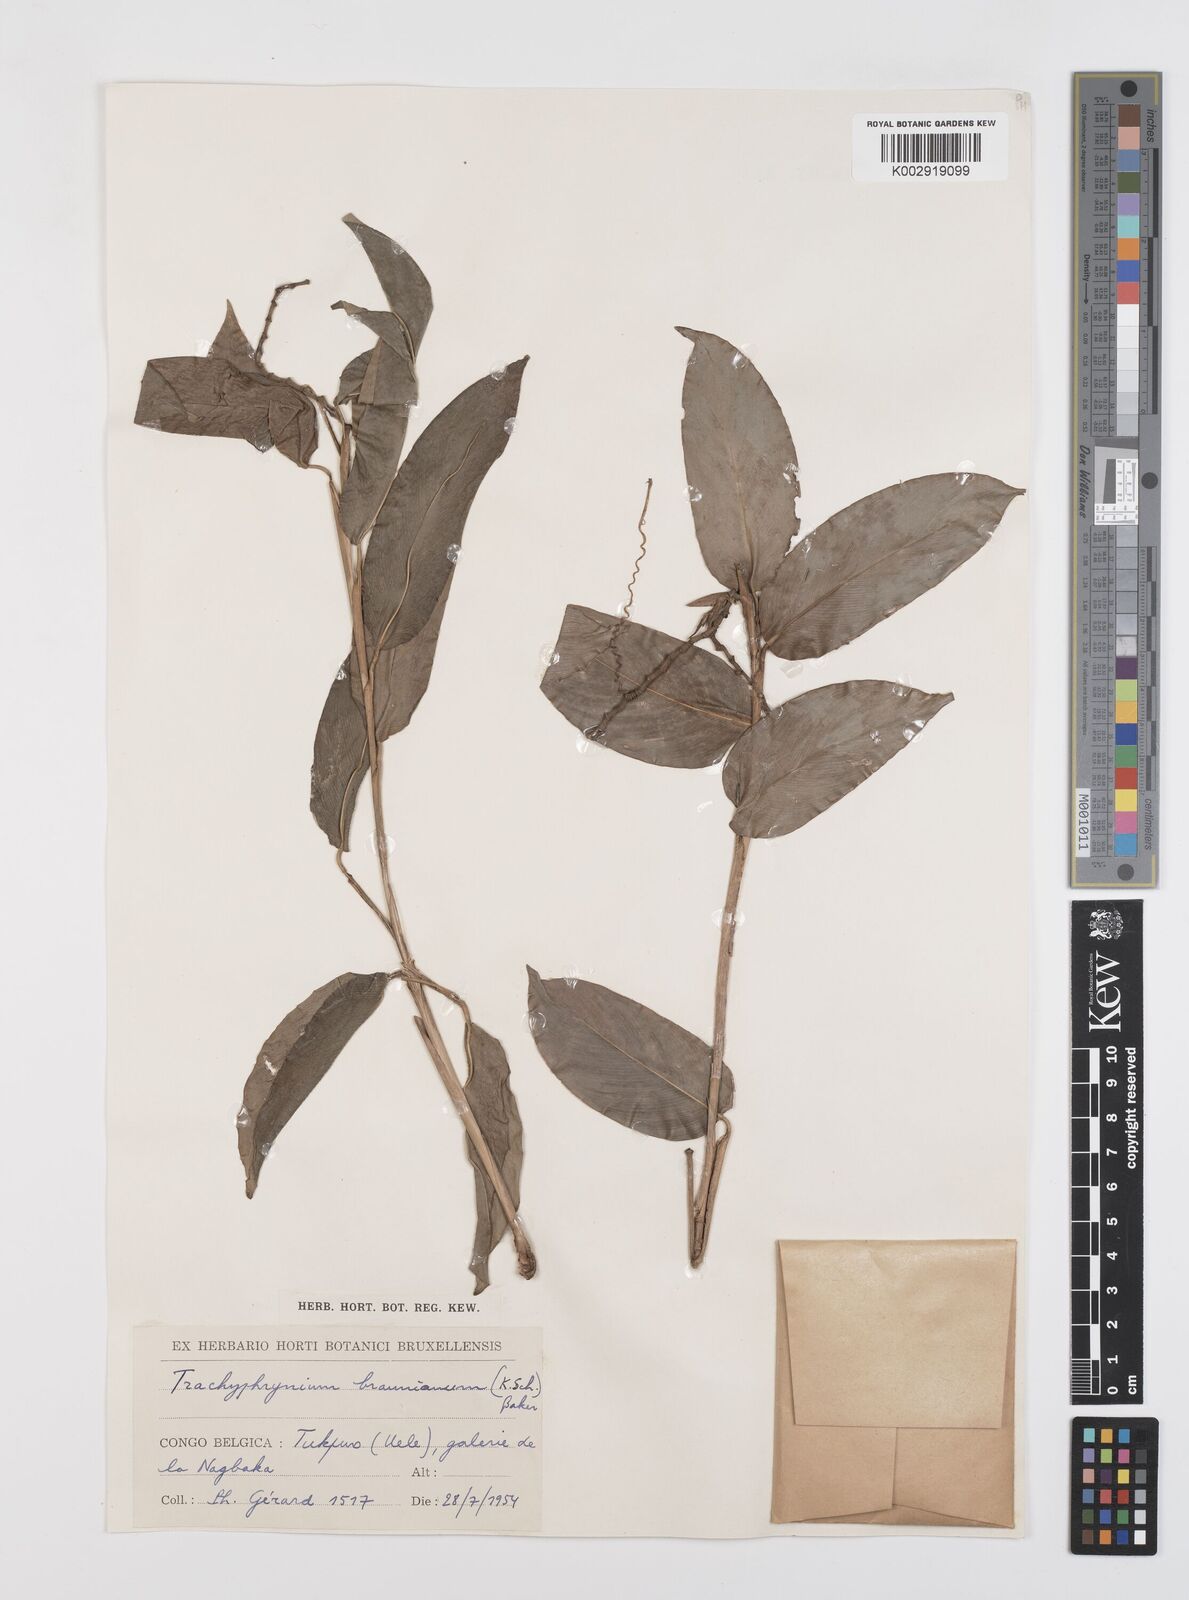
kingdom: Plantae
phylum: Tracheophyta
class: Liliopsida
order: Zingiberales
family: Marantaceae
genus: Trachyphrynium
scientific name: Trachyphrynium braunianum
